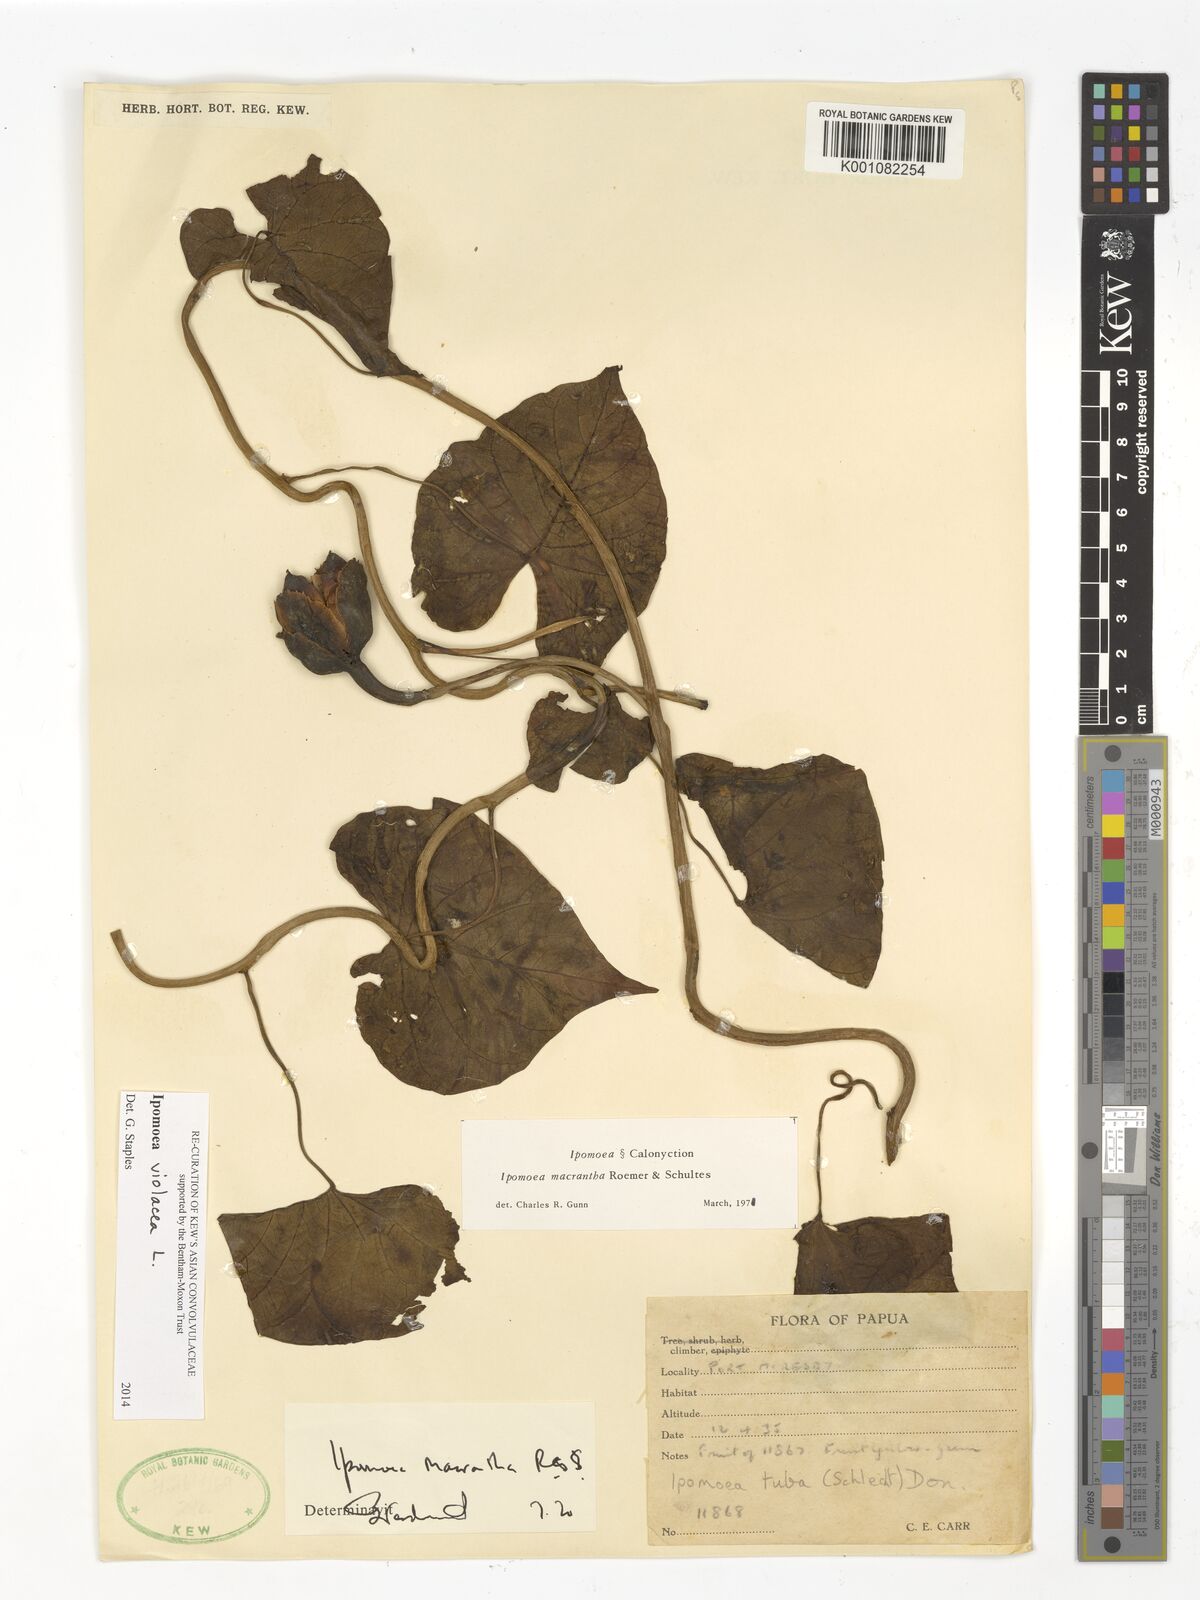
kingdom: Plantae
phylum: Tracheophyta
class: Magnoliopsida
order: Solanales
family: Convolvulaceae
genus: Ipomoea
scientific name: Ipomoea violacea
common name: Beach moonflower
